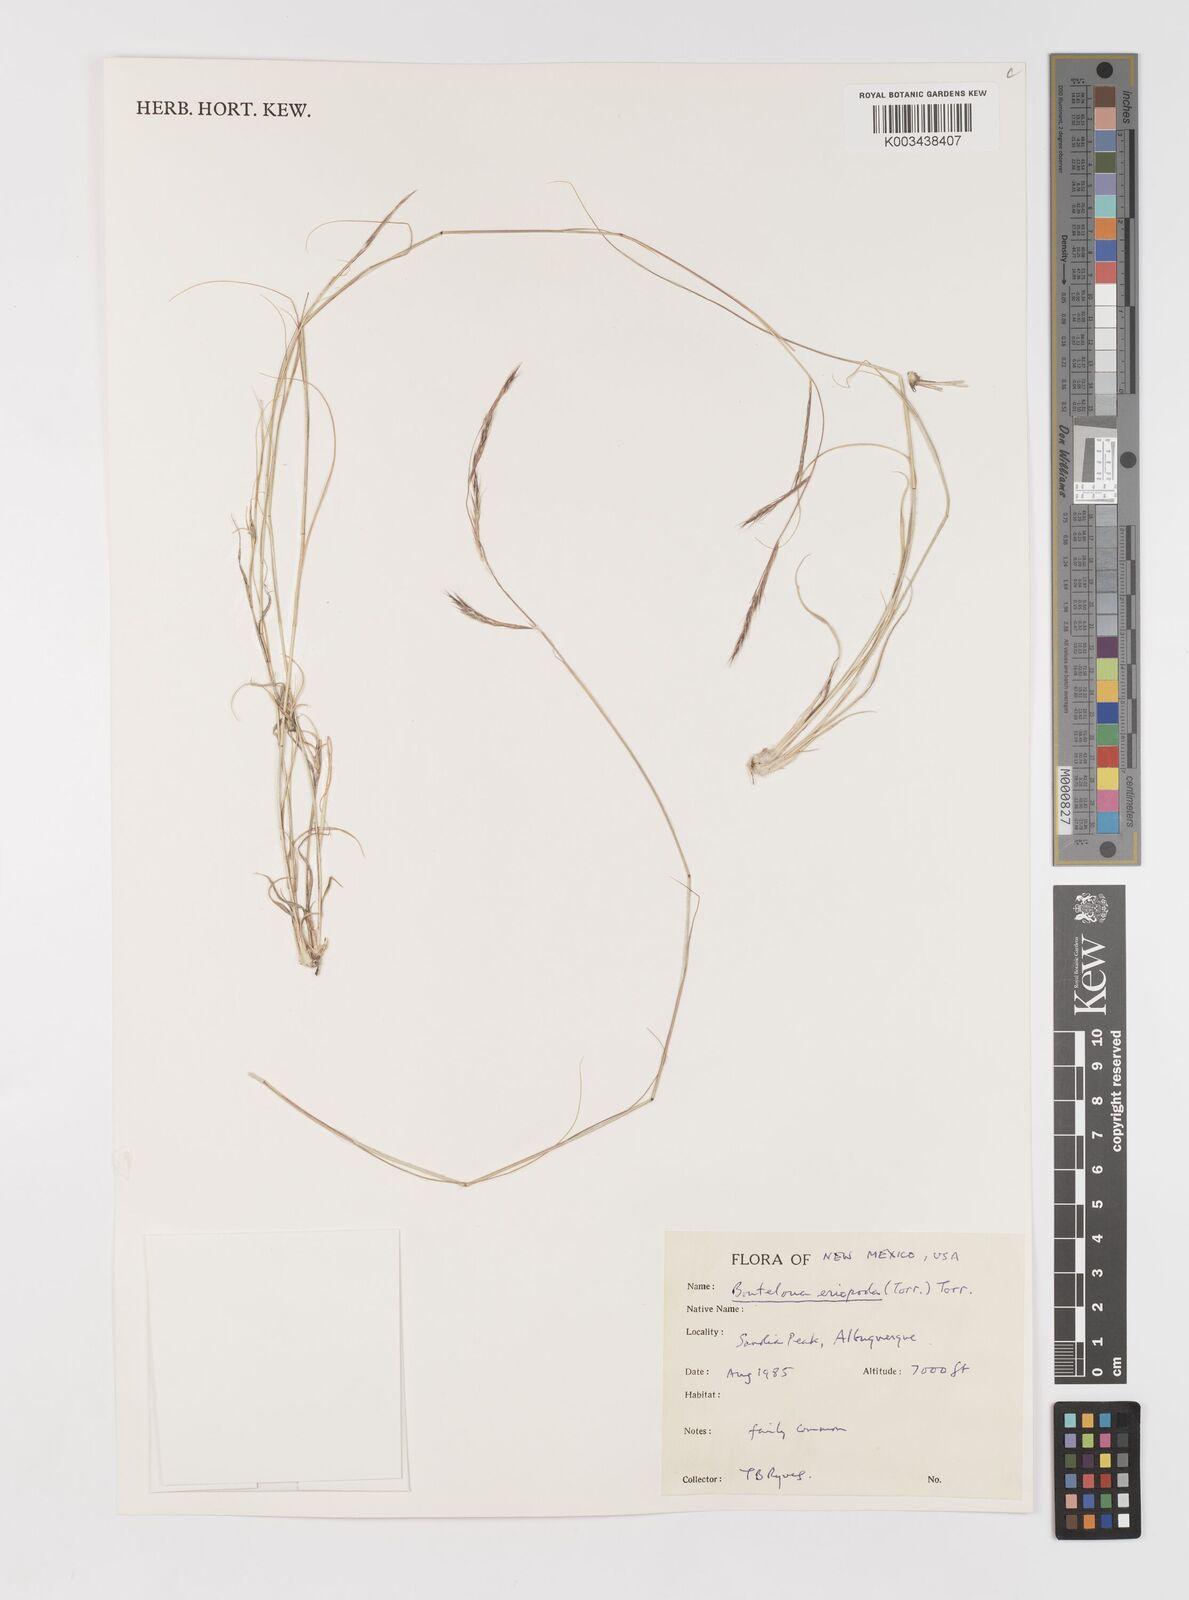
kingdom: Plantae
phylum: Tracheophyta
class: Liliopsida
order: Poales
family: Poaceae
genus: Bouteloua
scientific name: Bouteloua eriopoda
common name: Woolly foot grama
